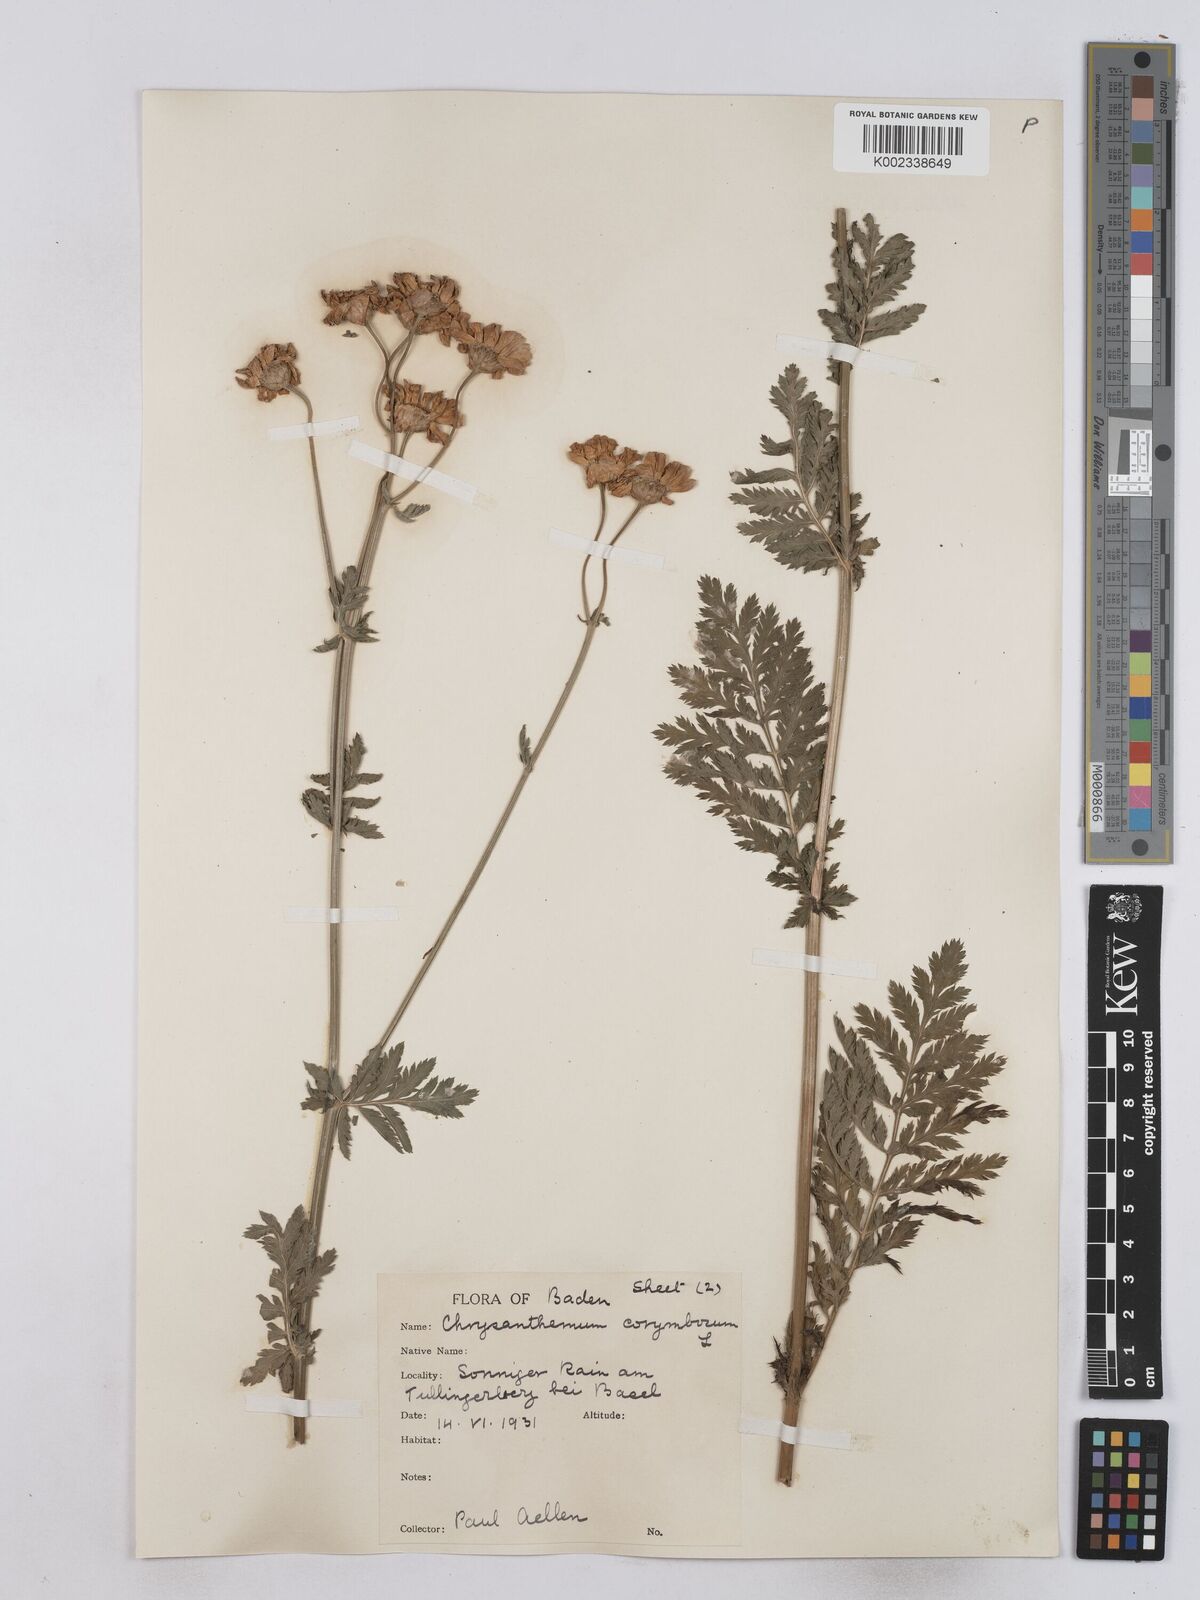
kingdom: Plantae
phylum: Tracheophyta
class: Magnoliopsida
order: Asterales
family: Asteraceae
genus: Tanacetum
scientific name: Tanacetum corymbosum
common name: Scentless feverfew
